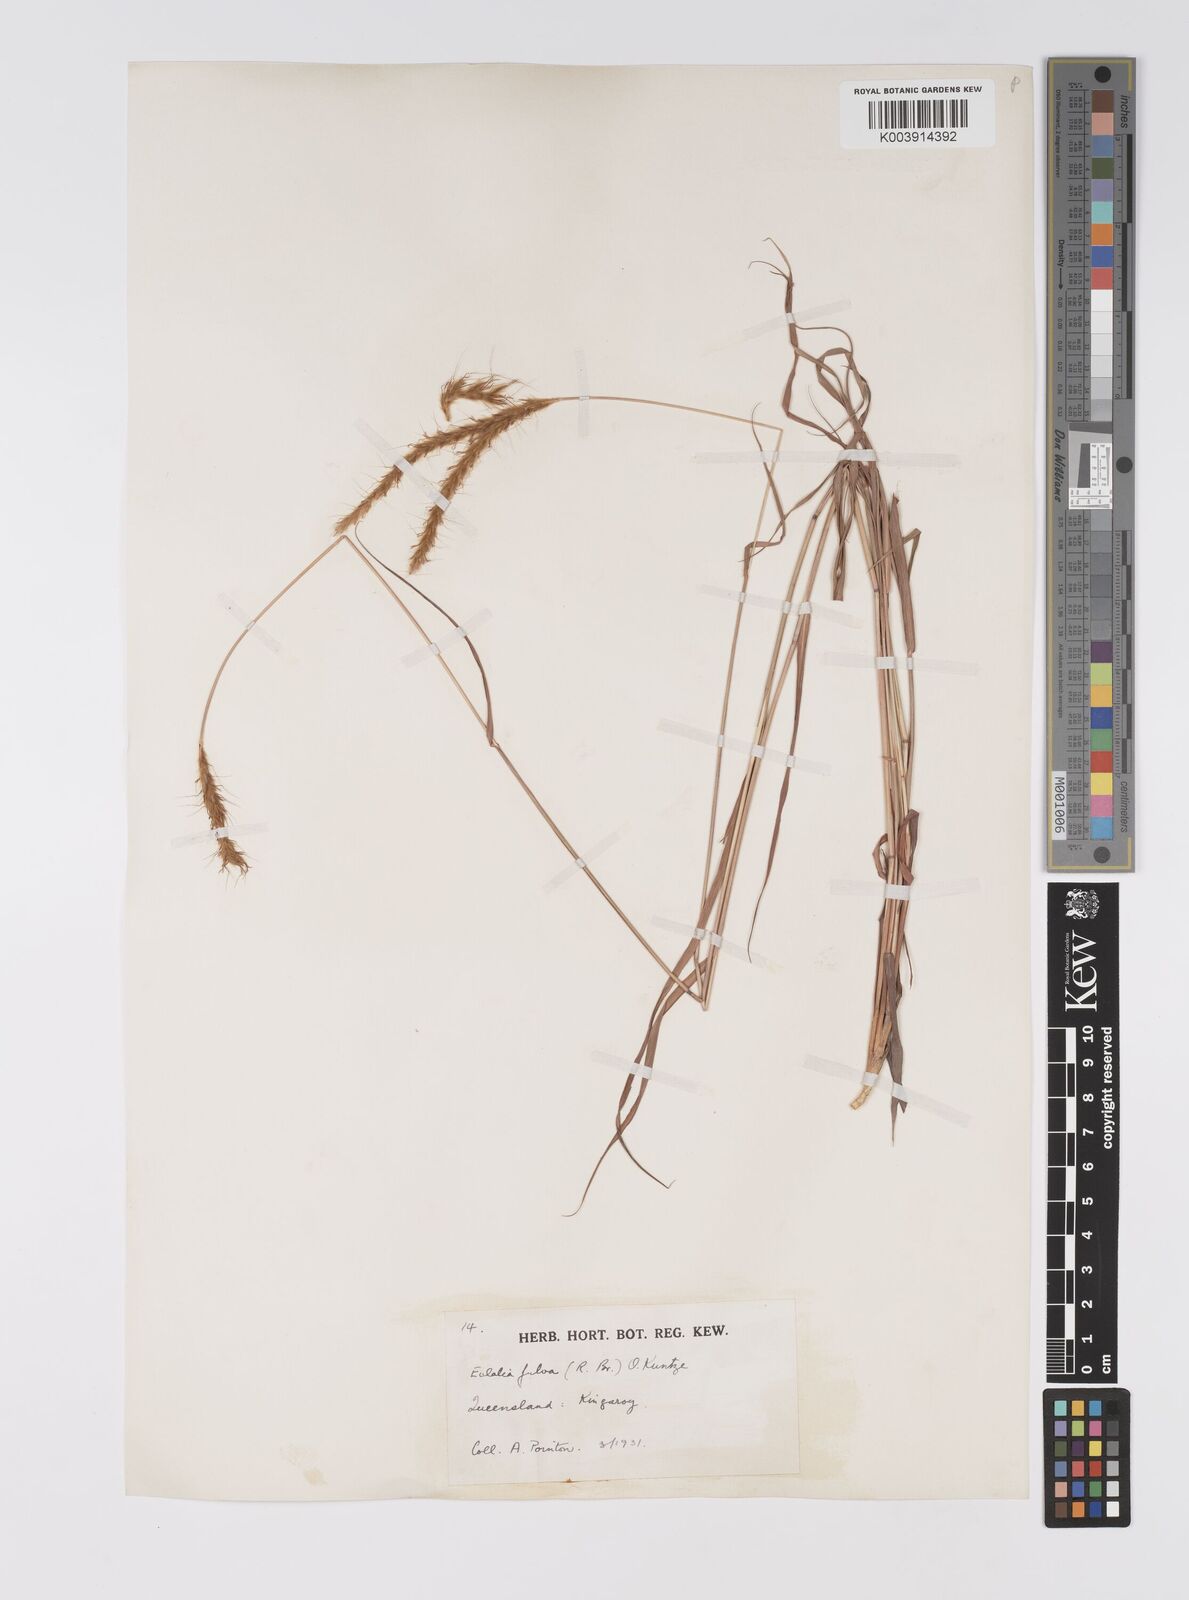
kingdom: Plantae
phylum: Tracheophyta
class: Liliopsida
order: Poales
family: Poaceae
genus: Eulalia
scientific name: Eulalia aurea
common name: Silky browntop
